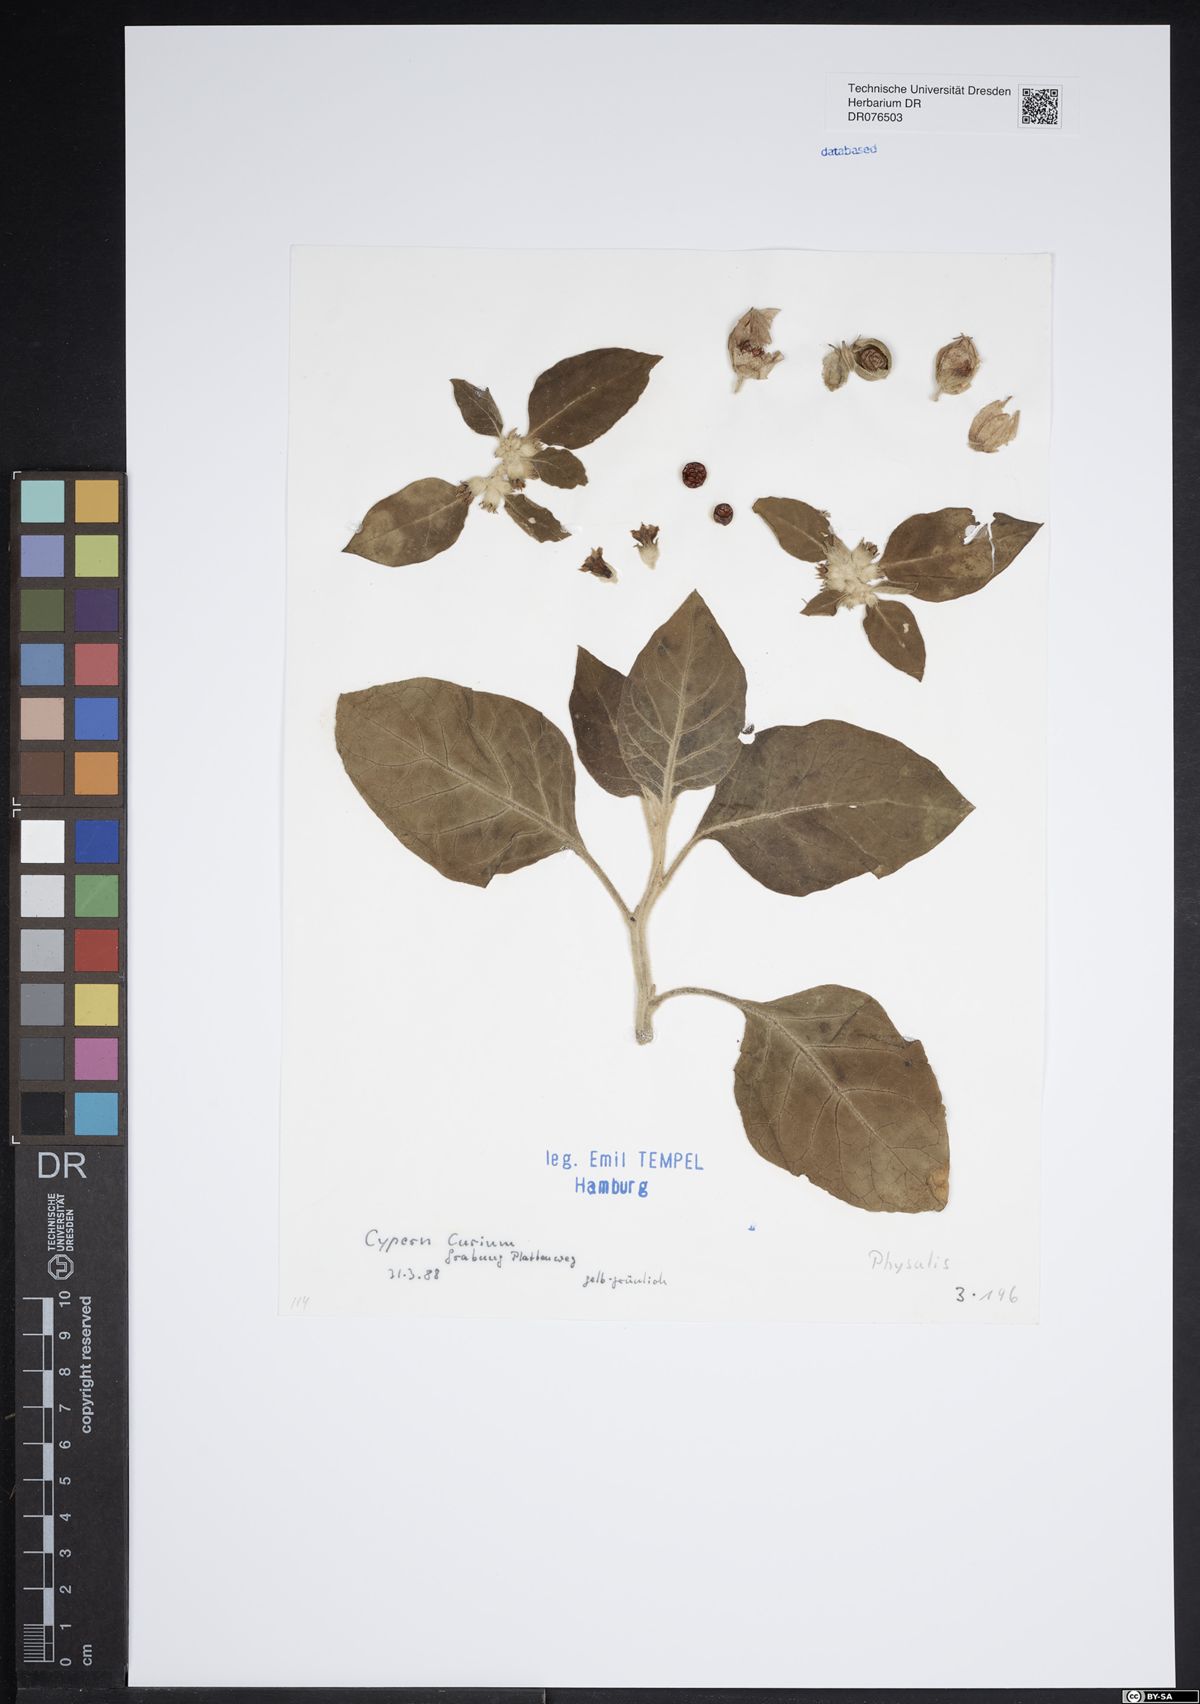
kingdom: Plantae
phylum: Tracheophyta
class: Magnoliopsida
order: Solanales
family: Solanaceae
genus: Physalis
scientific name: Physalis
